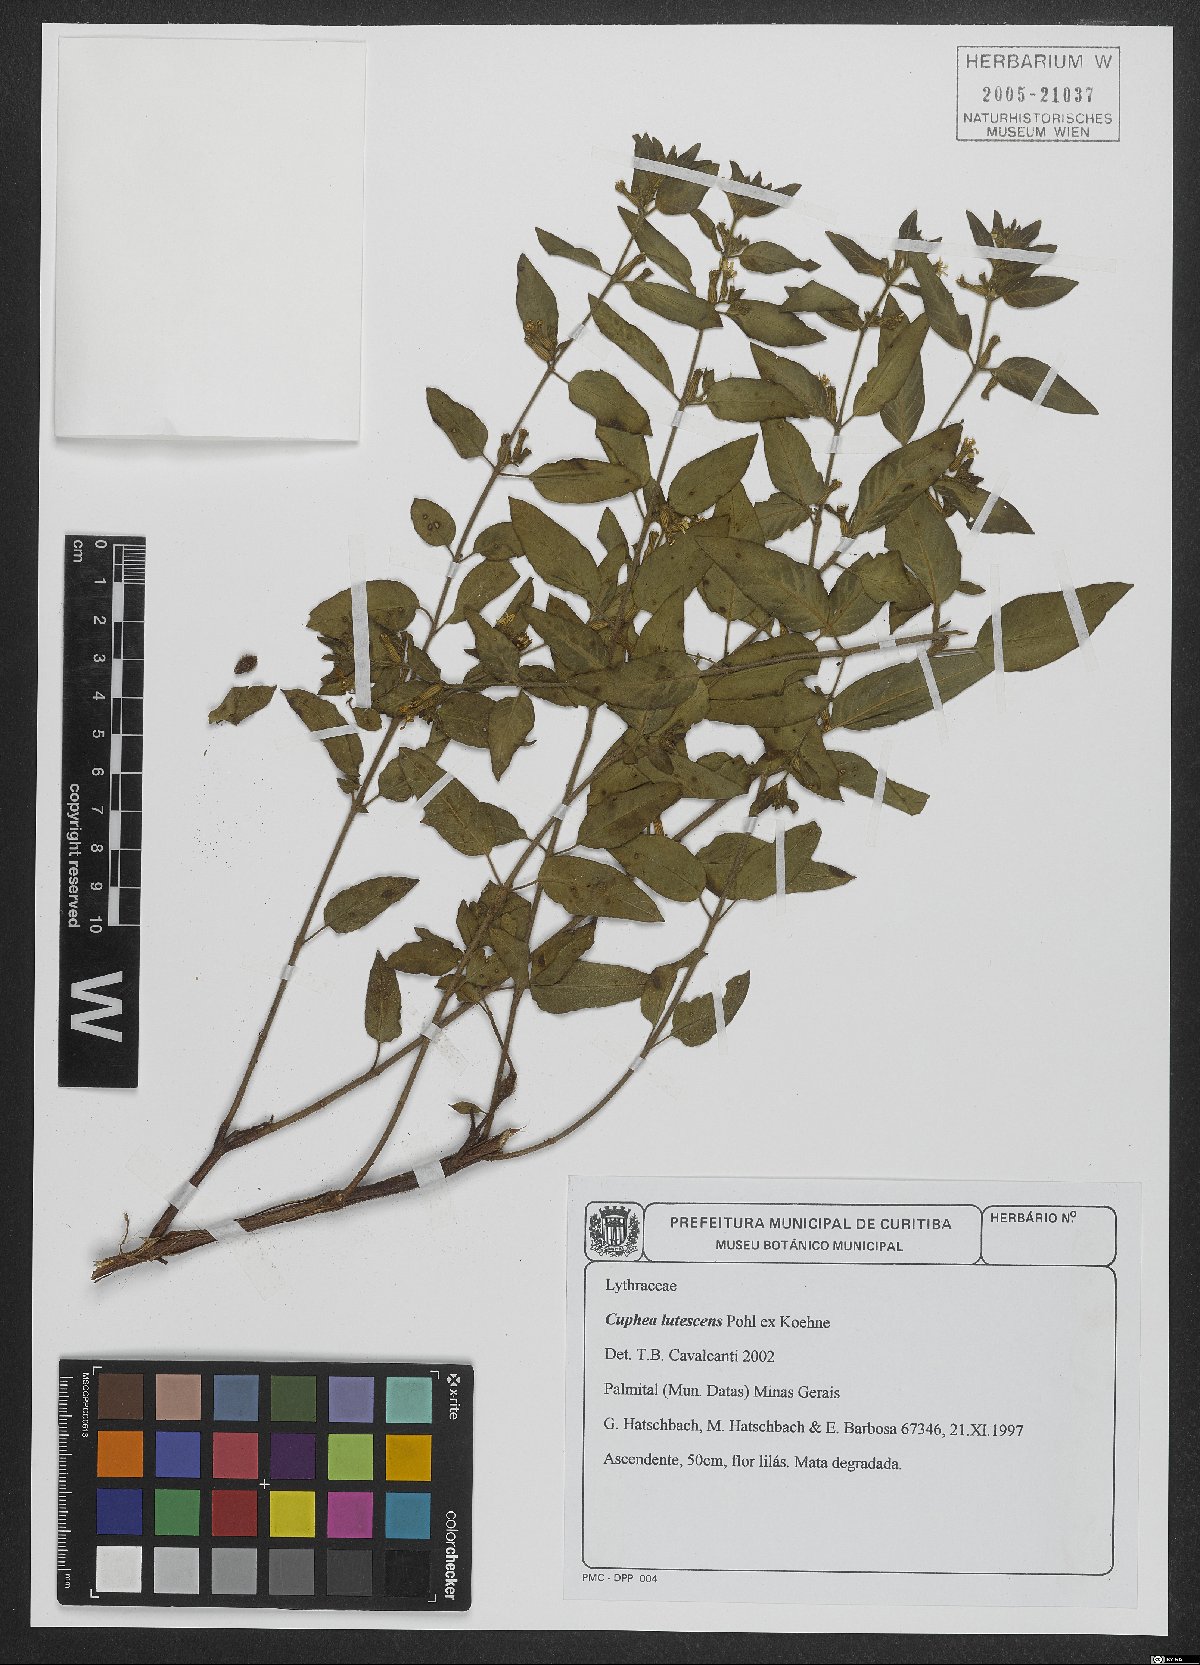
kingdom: Plantae
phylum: Tracheophyta
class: Magnoliopsida
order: Myrtales
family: Lythraceae
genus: Cuphea
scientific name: Cuphea lutescens
